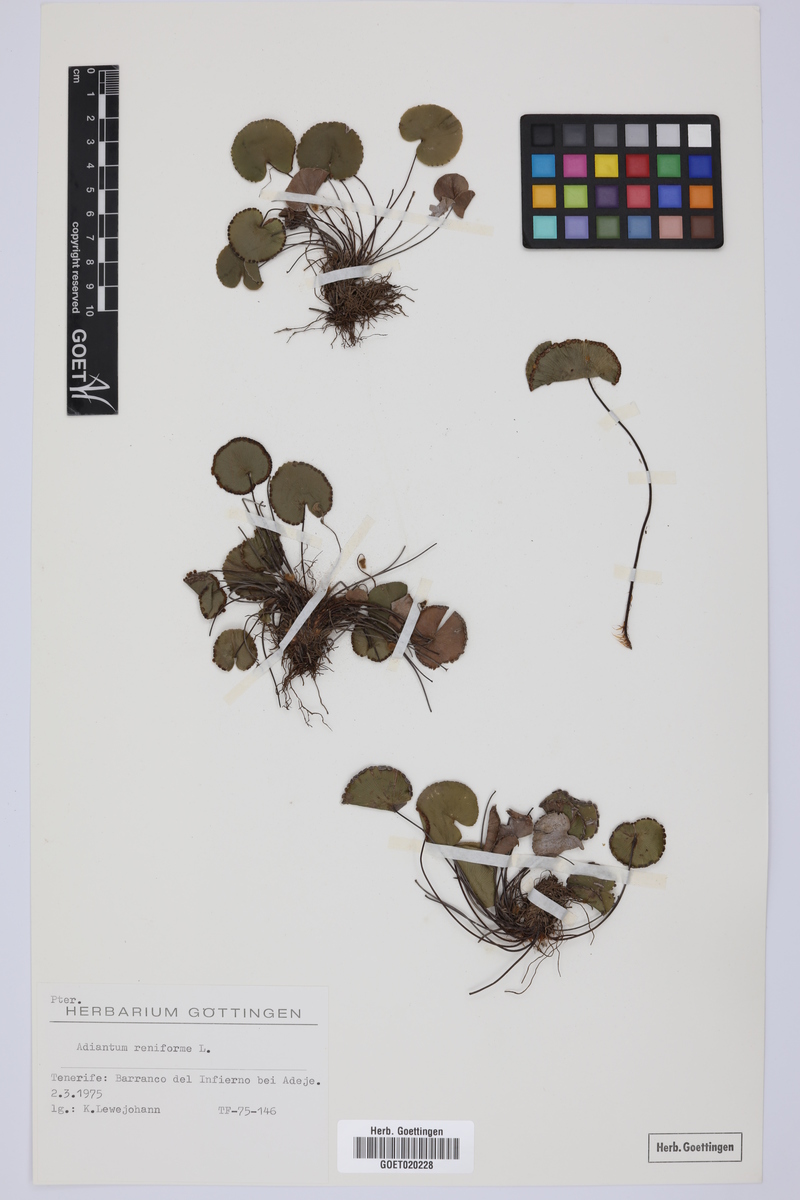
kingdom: Plantae
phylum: Tracheophyta
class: Polypodiopsida
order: Polypodiales
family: Pteridaceae
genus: Adiantum
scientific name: Adiantum reniforme
